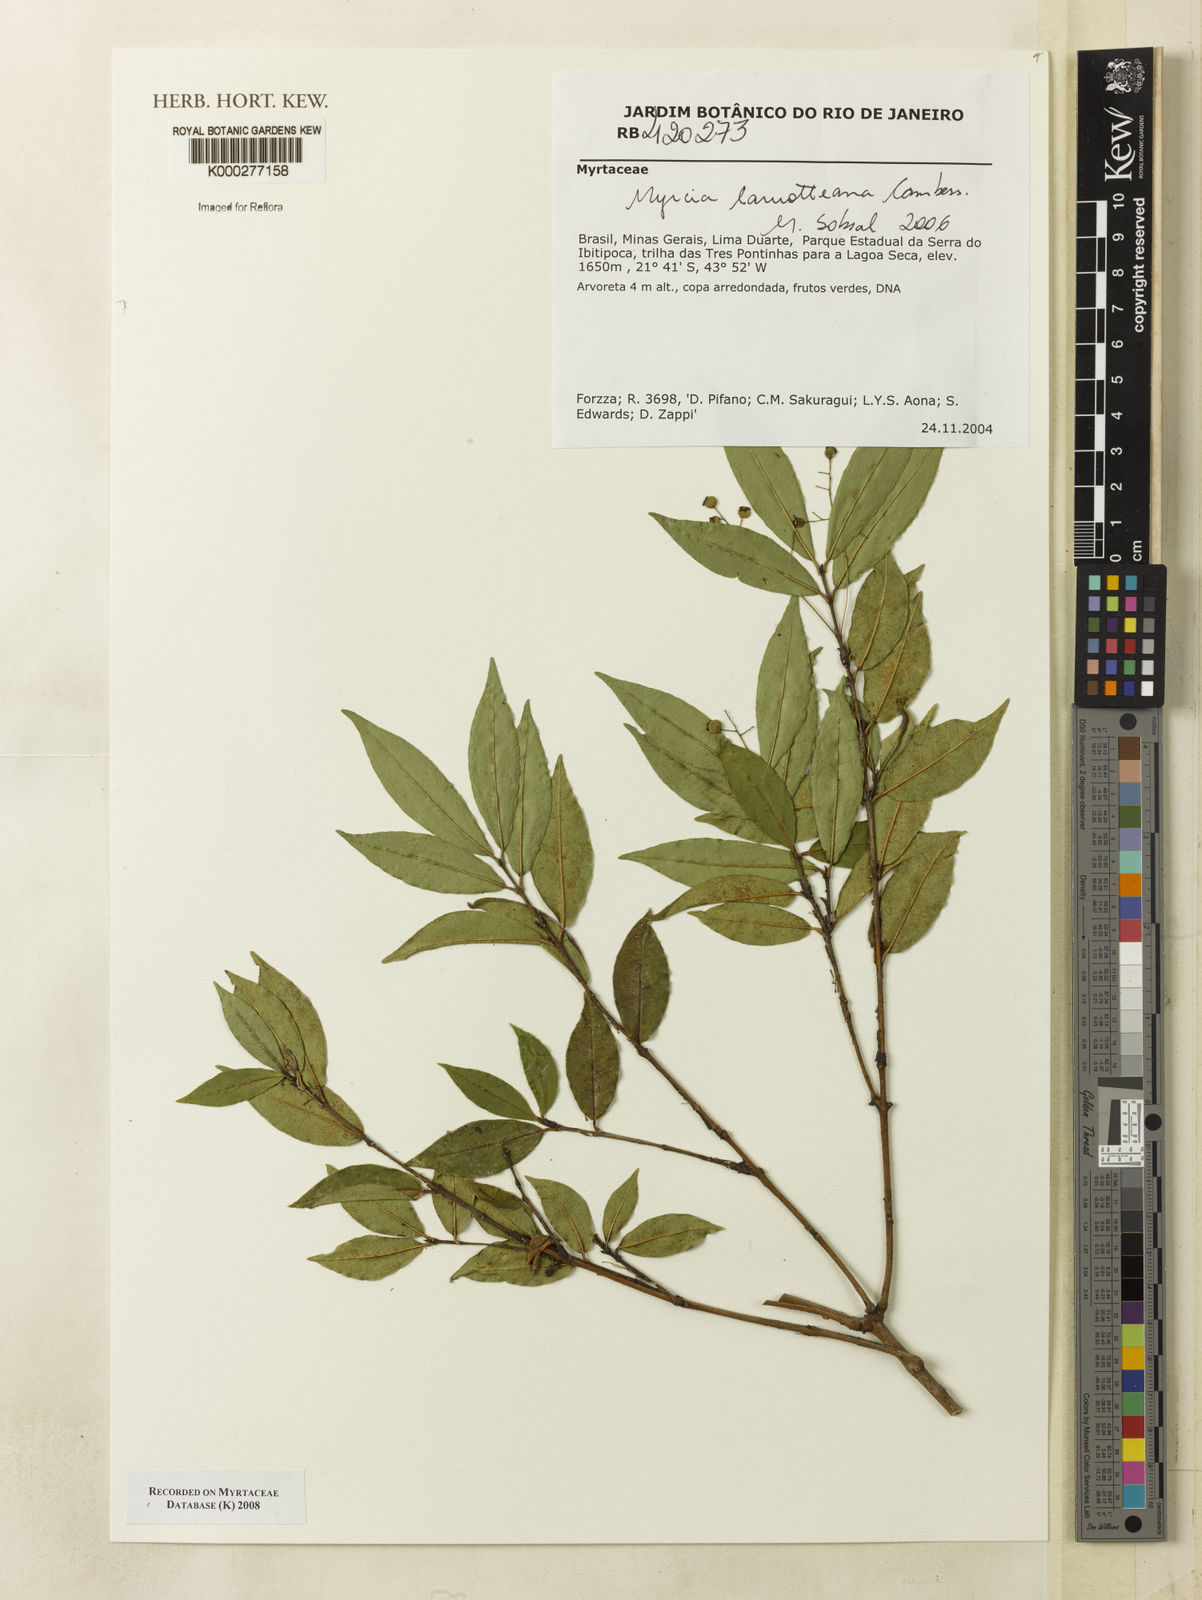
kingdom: Plantae
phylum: Tracheophyta
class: Magnoliopsida
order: Myrtales
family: Myrtaceae
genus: Myrcia
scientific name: Myrcia laruotteana
